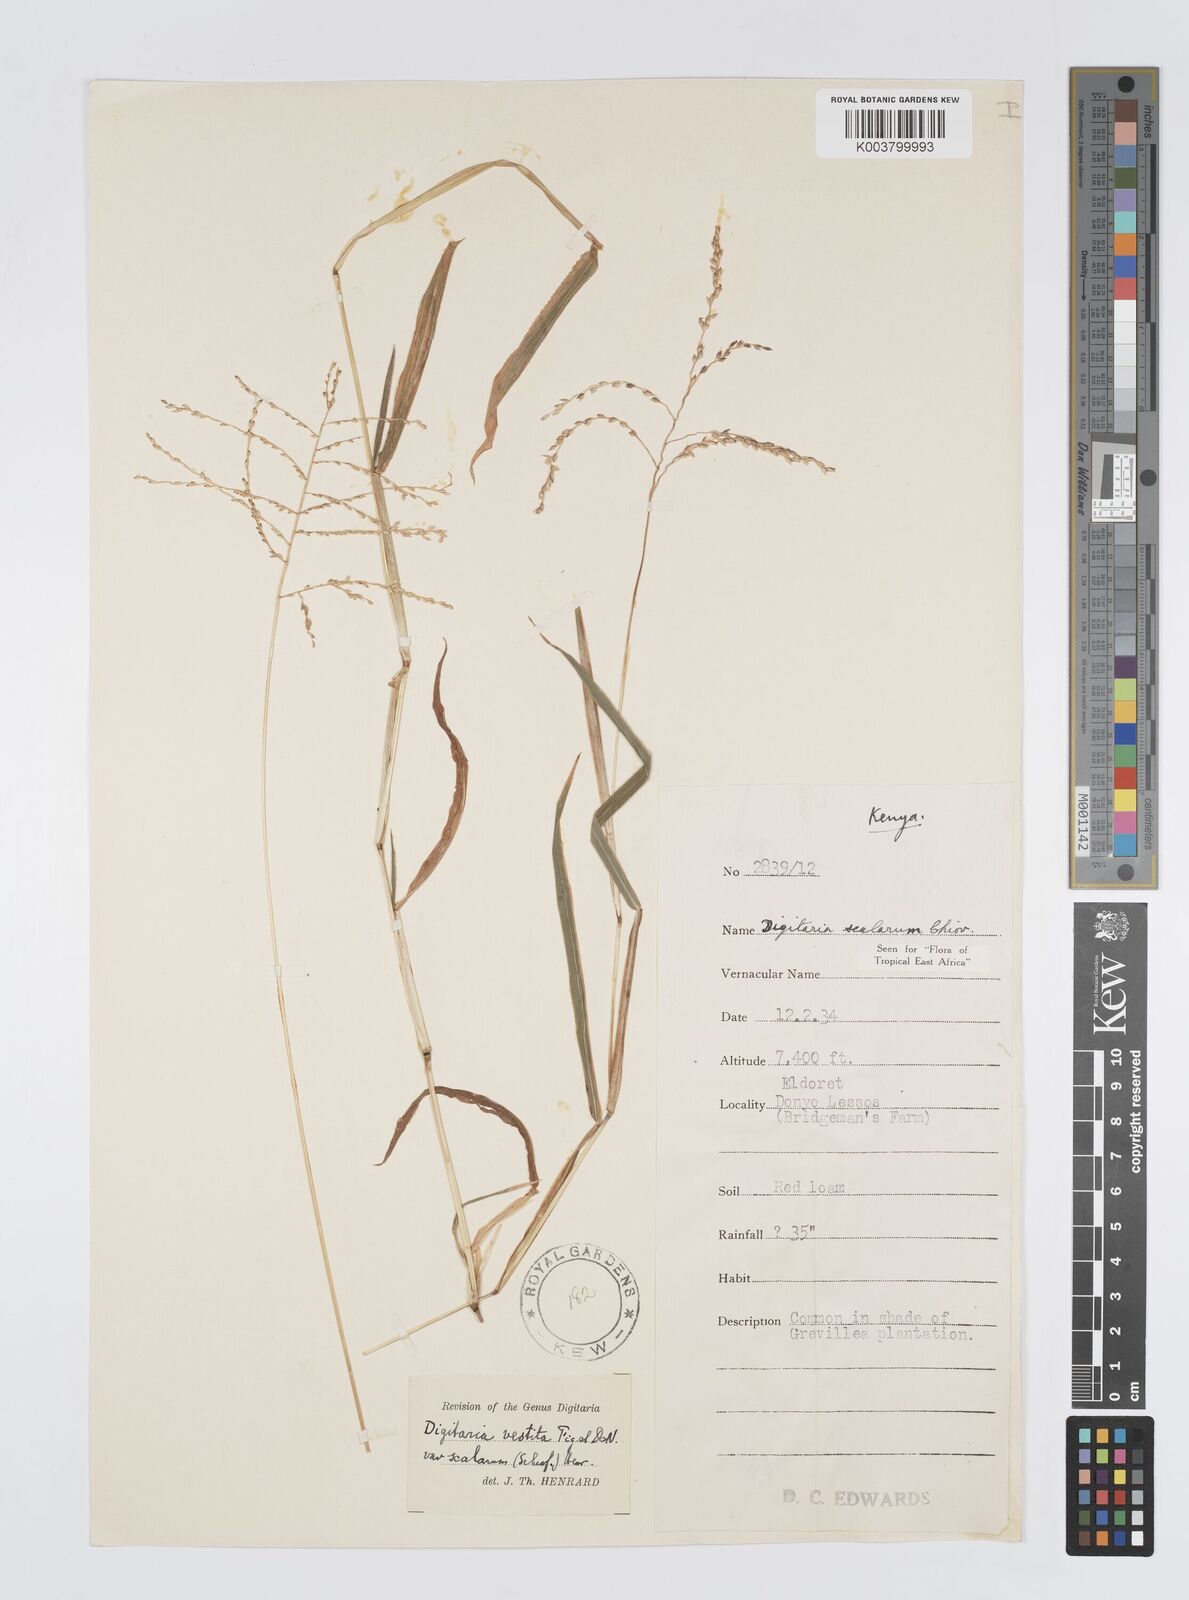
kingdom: Plantae
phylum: Tracheophyta
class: Liliopsida
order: Poales
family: Poaceae
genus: Digitaria
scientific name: Digitaria abyssinica
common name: African couchgrass
